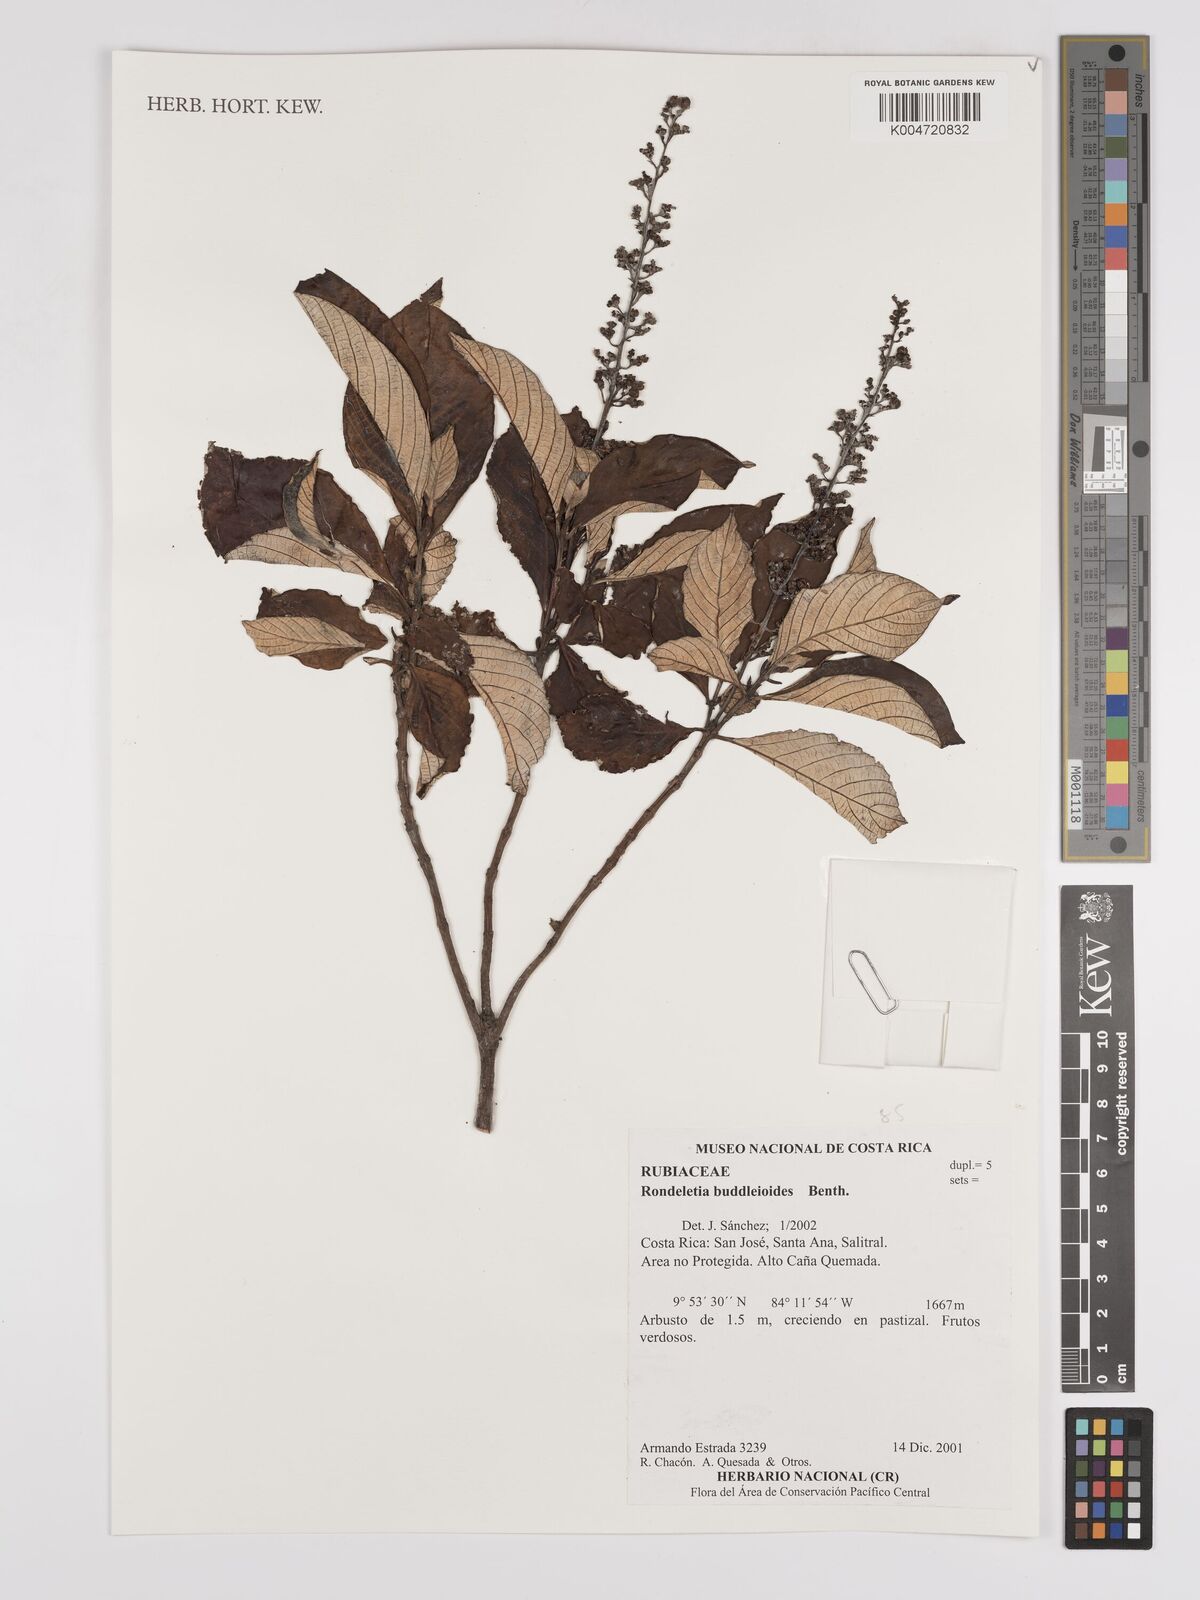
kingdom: Plantae
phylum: Tracheophyta
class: Magnoliopsida
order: Gentianales
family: Rubiaceae
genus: Arachnothryx
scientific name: Arachnothryx buddleioides
